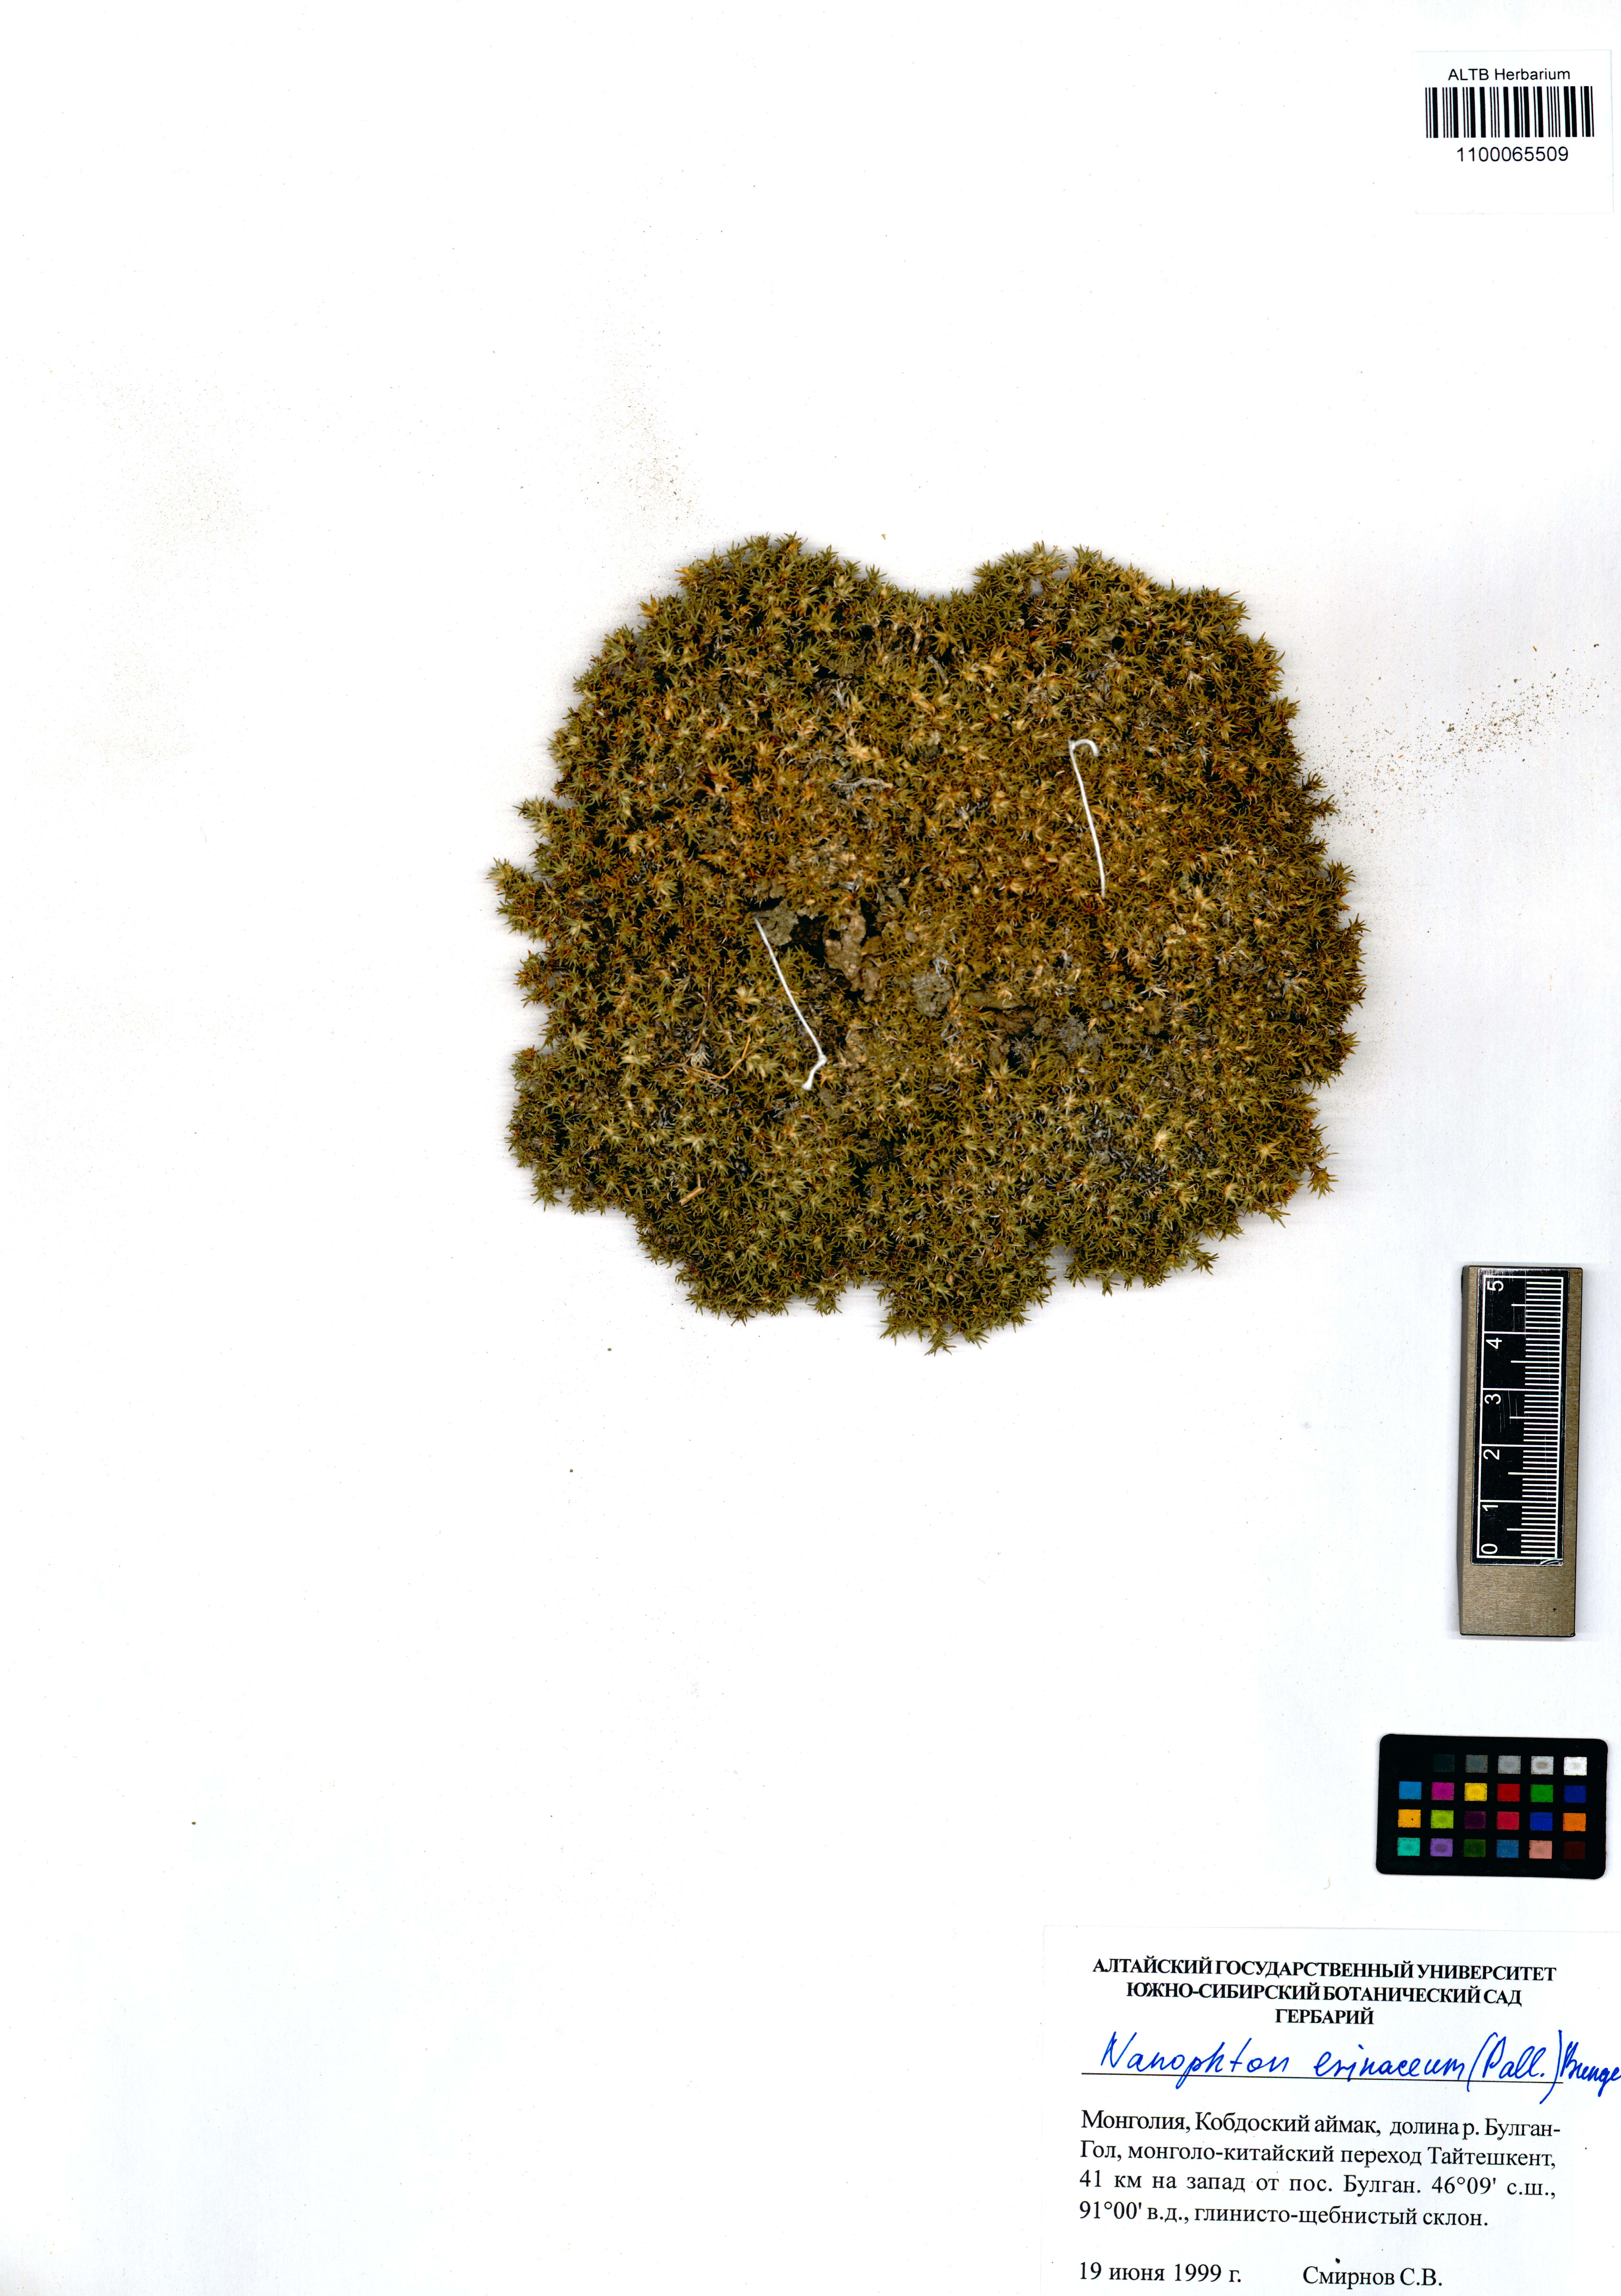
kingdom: Plantae
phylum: Tracheophyta
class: Magnoliopsida
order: Caryophyllales
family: Amaranthaceae
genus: Nanophyton
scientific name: Nanophyton erinaceum
